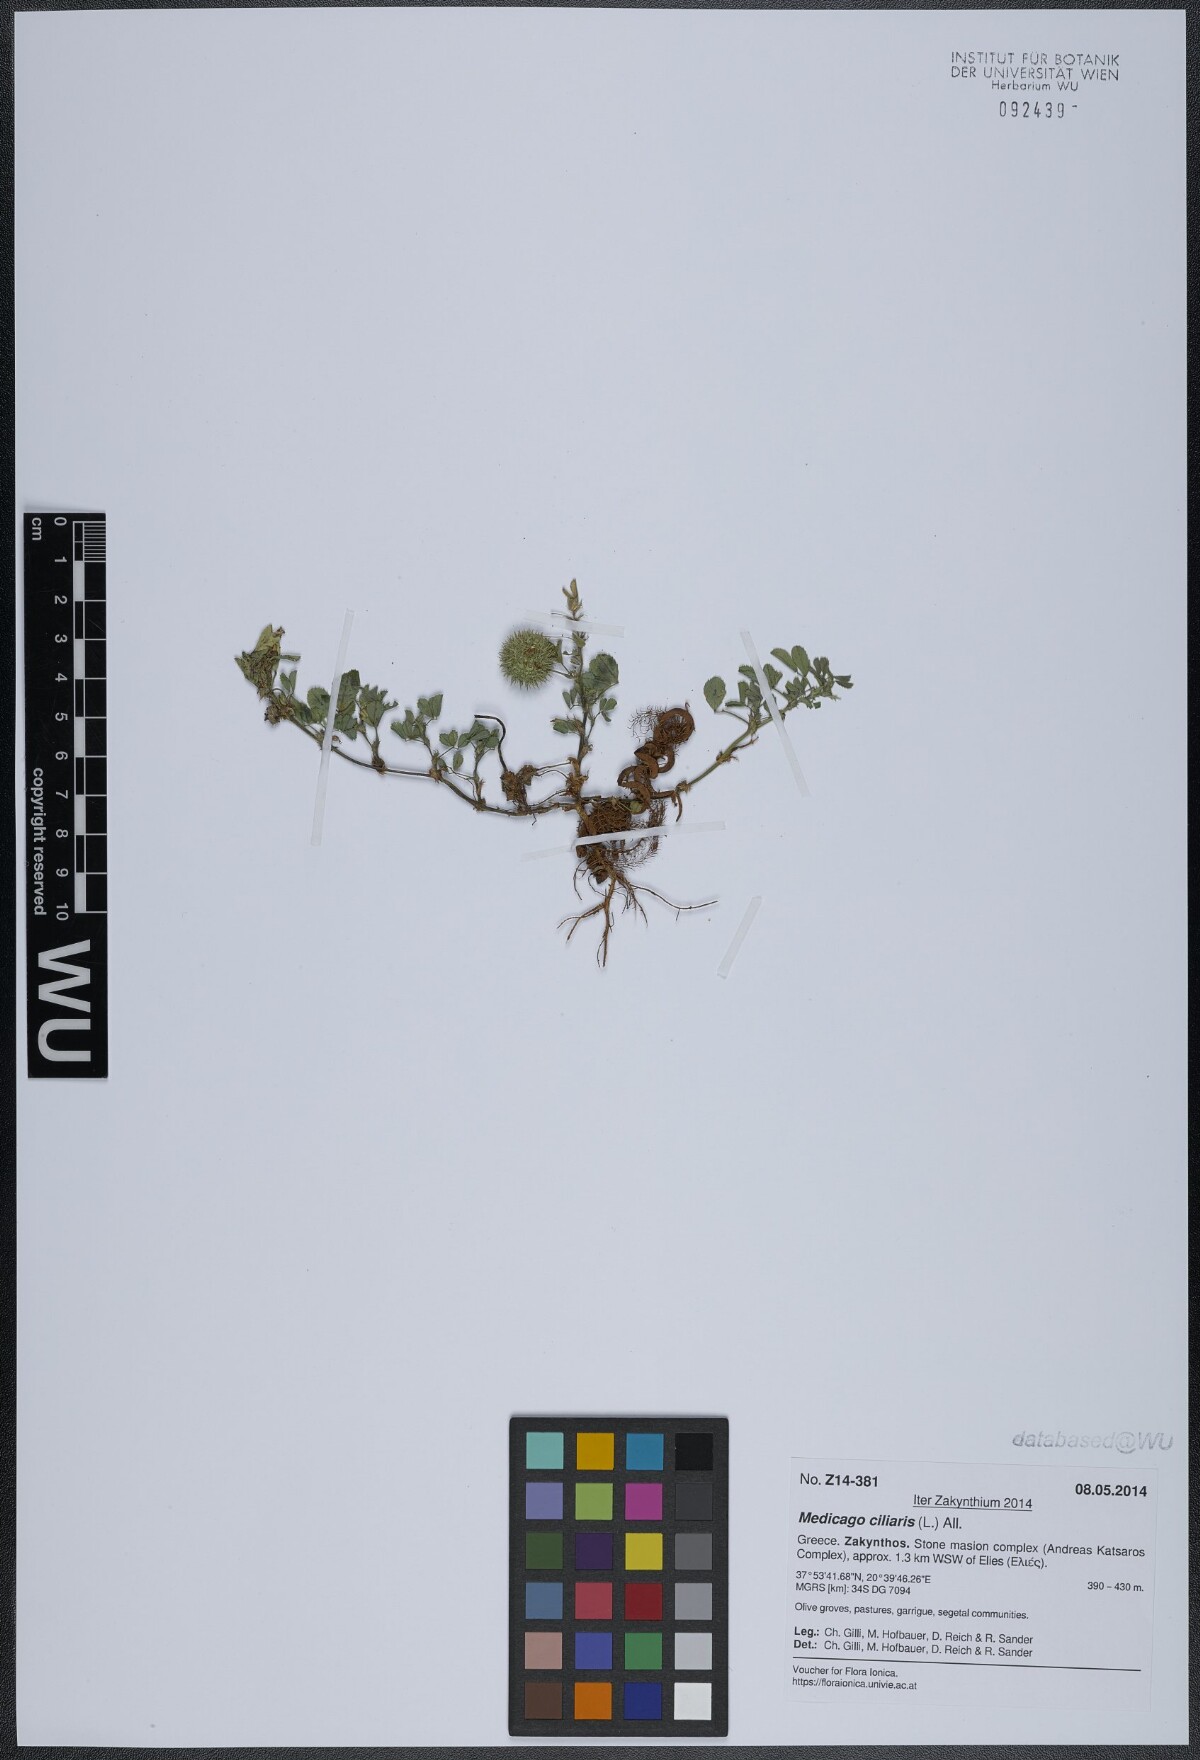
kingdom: Plantae
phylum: Tracheophyta
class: Magnoliopsida
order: Fabales
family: Fabaceae
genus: Medicago
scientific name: Medicago ciliaris
